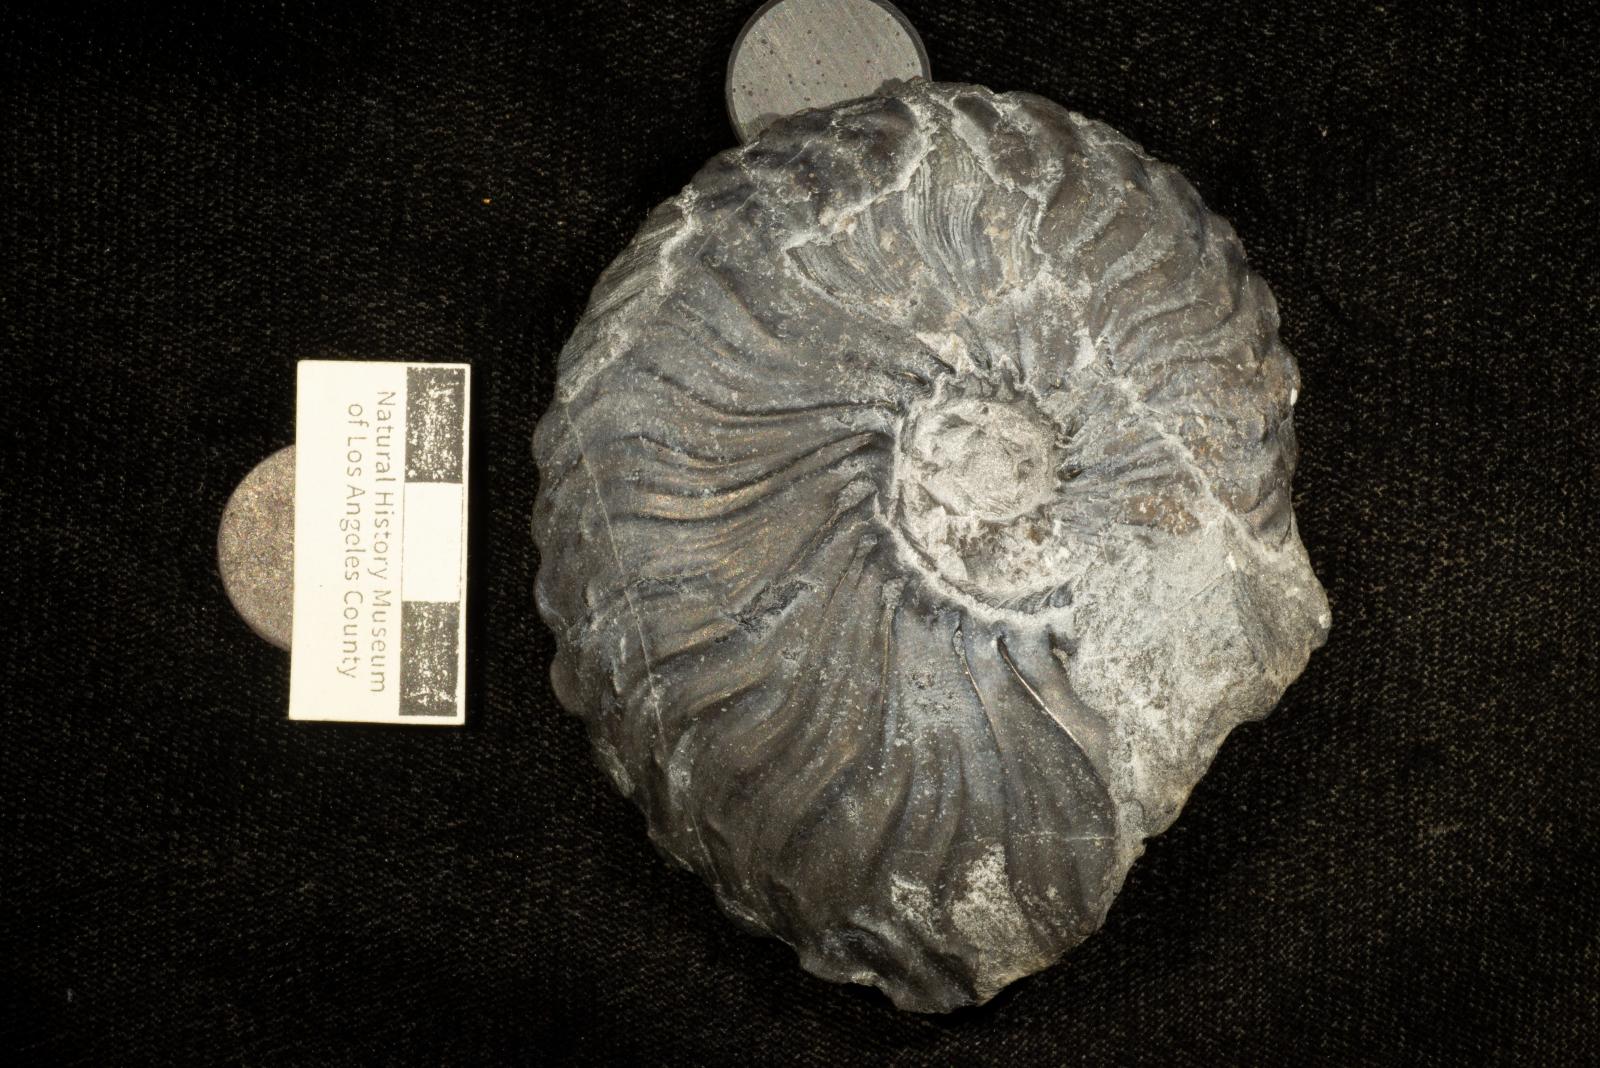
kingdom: Animalia
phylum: Mollusca
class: Cephalopoda
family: Placenticeratidae
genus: Metaplacenticeras
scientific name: Metaplacenticeras Placenticeras sanctaemonicae
